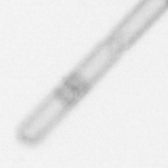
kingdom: Chromista
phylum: Ochrophyta
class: Bacillariophyceae
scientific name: Bacillariophyceae
